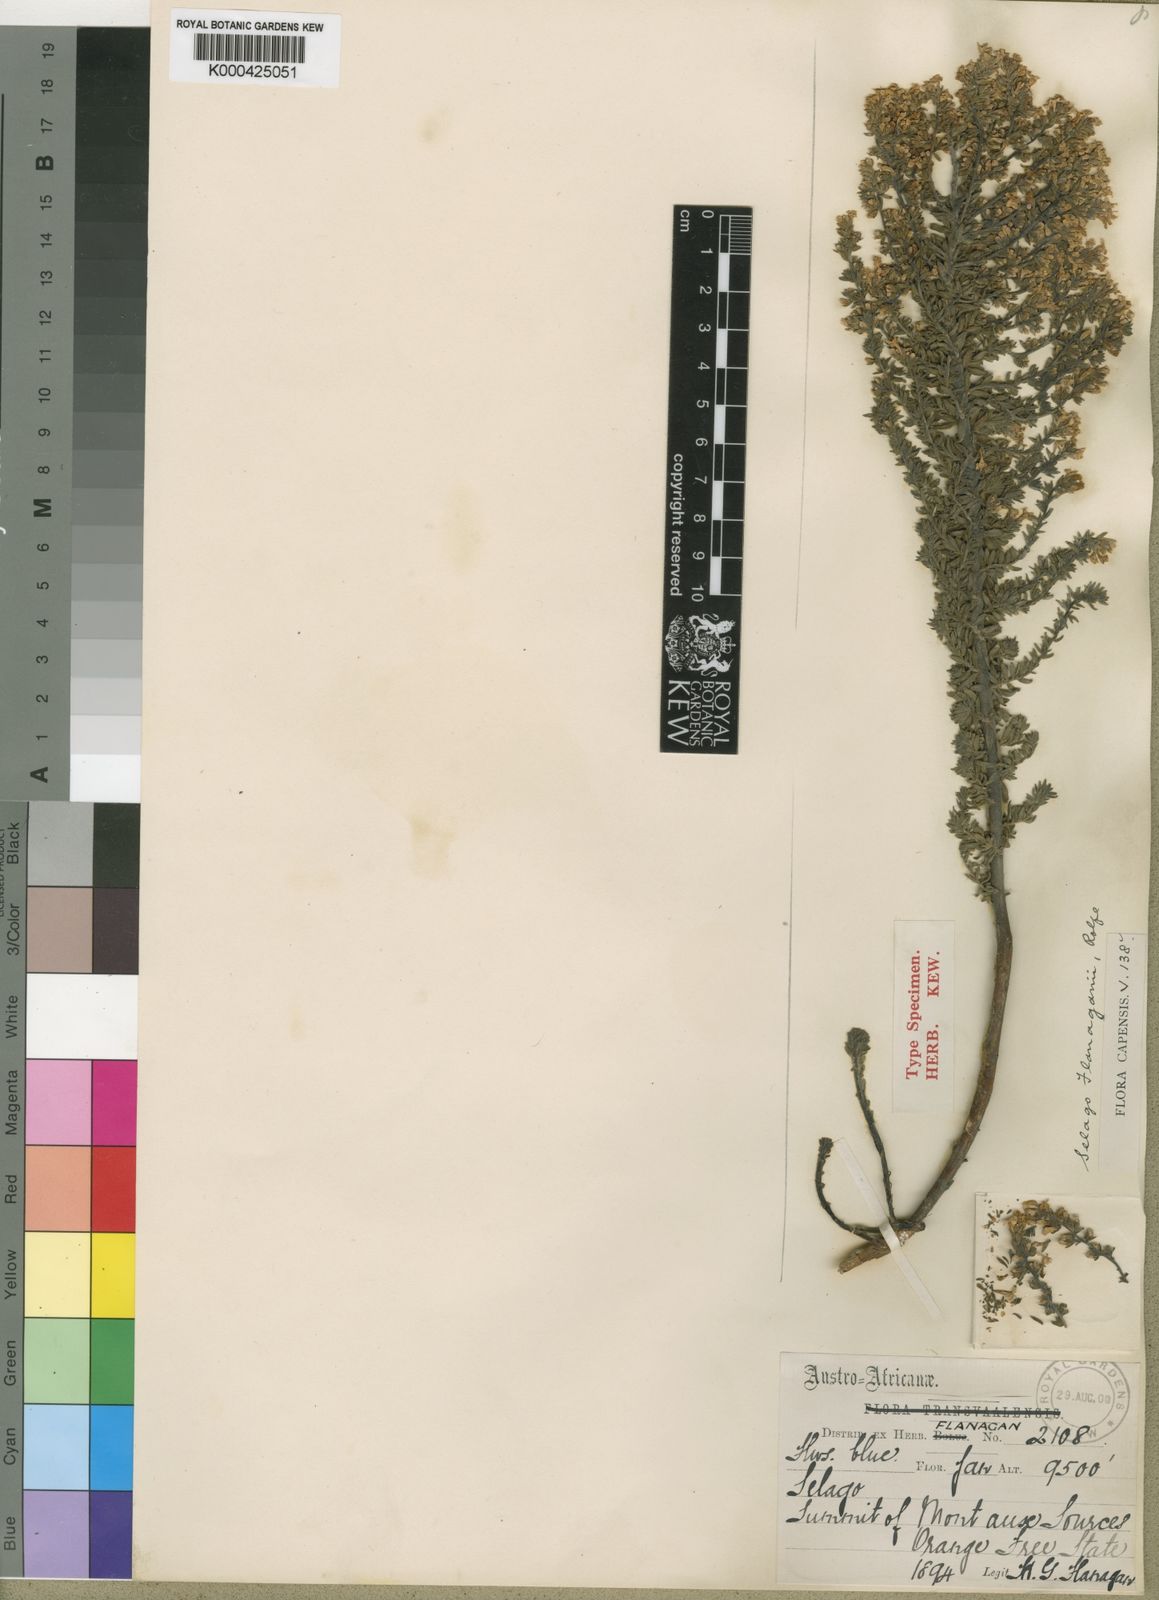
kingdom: Plantae
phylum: Tracheophyta
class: Magnoliopsida
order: Lamiales
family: Scrophulariaceae
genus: Selago
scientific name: Selago flanaganii
